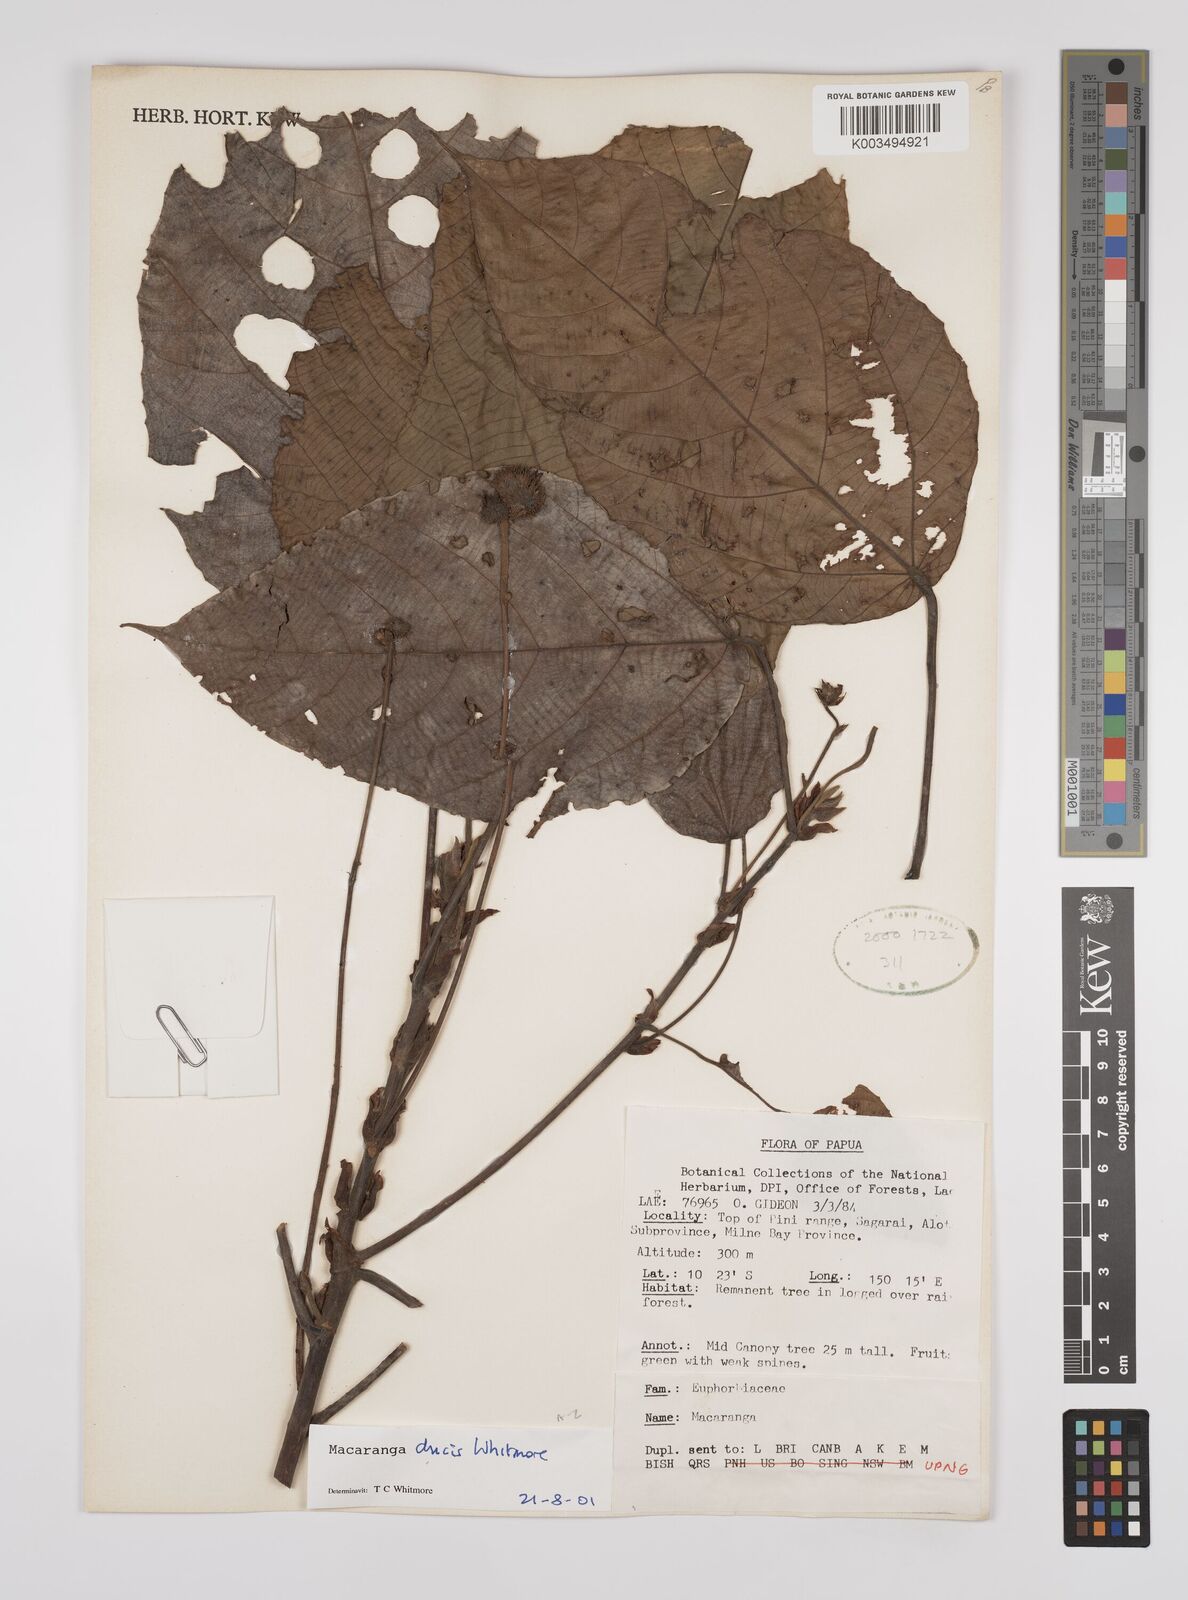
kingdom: Plantae
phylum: Tracheophyta
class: Magnoliopsida
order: Malpighiales
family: Euphorbiaceae
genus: Macaranga
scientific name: Macaranga ducis
